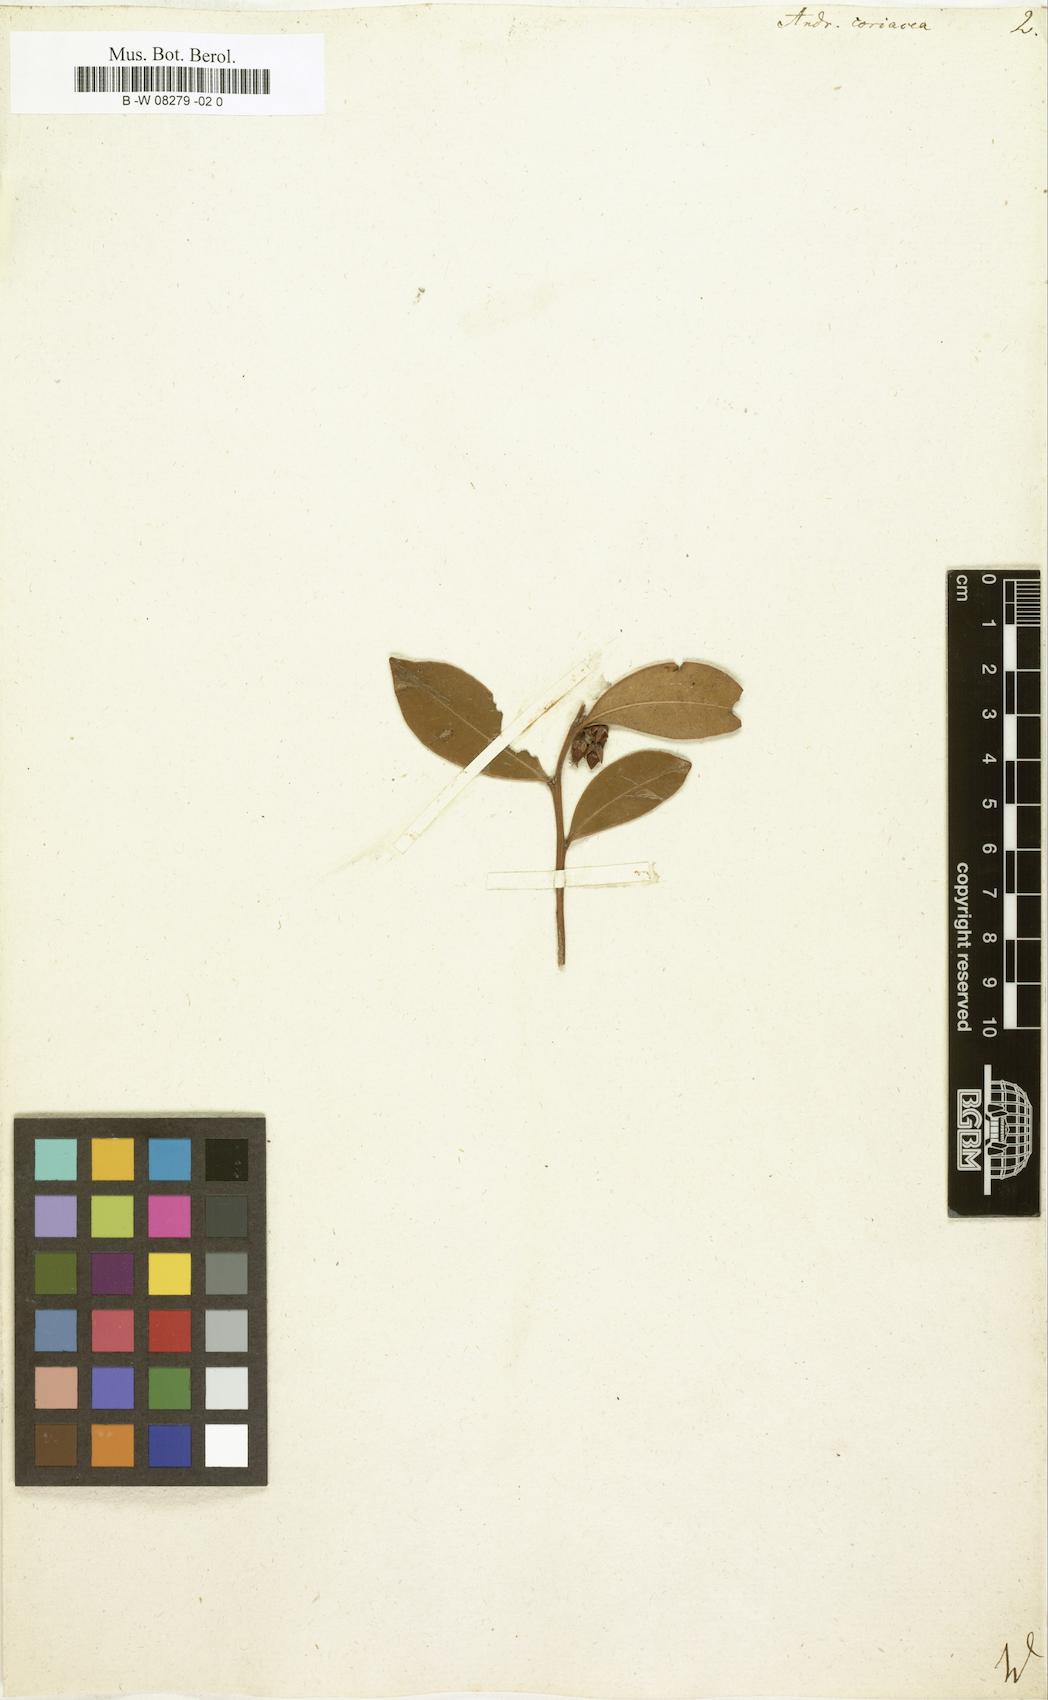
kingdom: Plantae
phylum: Tracheophyta
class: Magnoliopsida
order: Ericales
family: Ericaceae
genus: Lyonia
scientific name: Lyonia lucida
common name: Fetterbush
